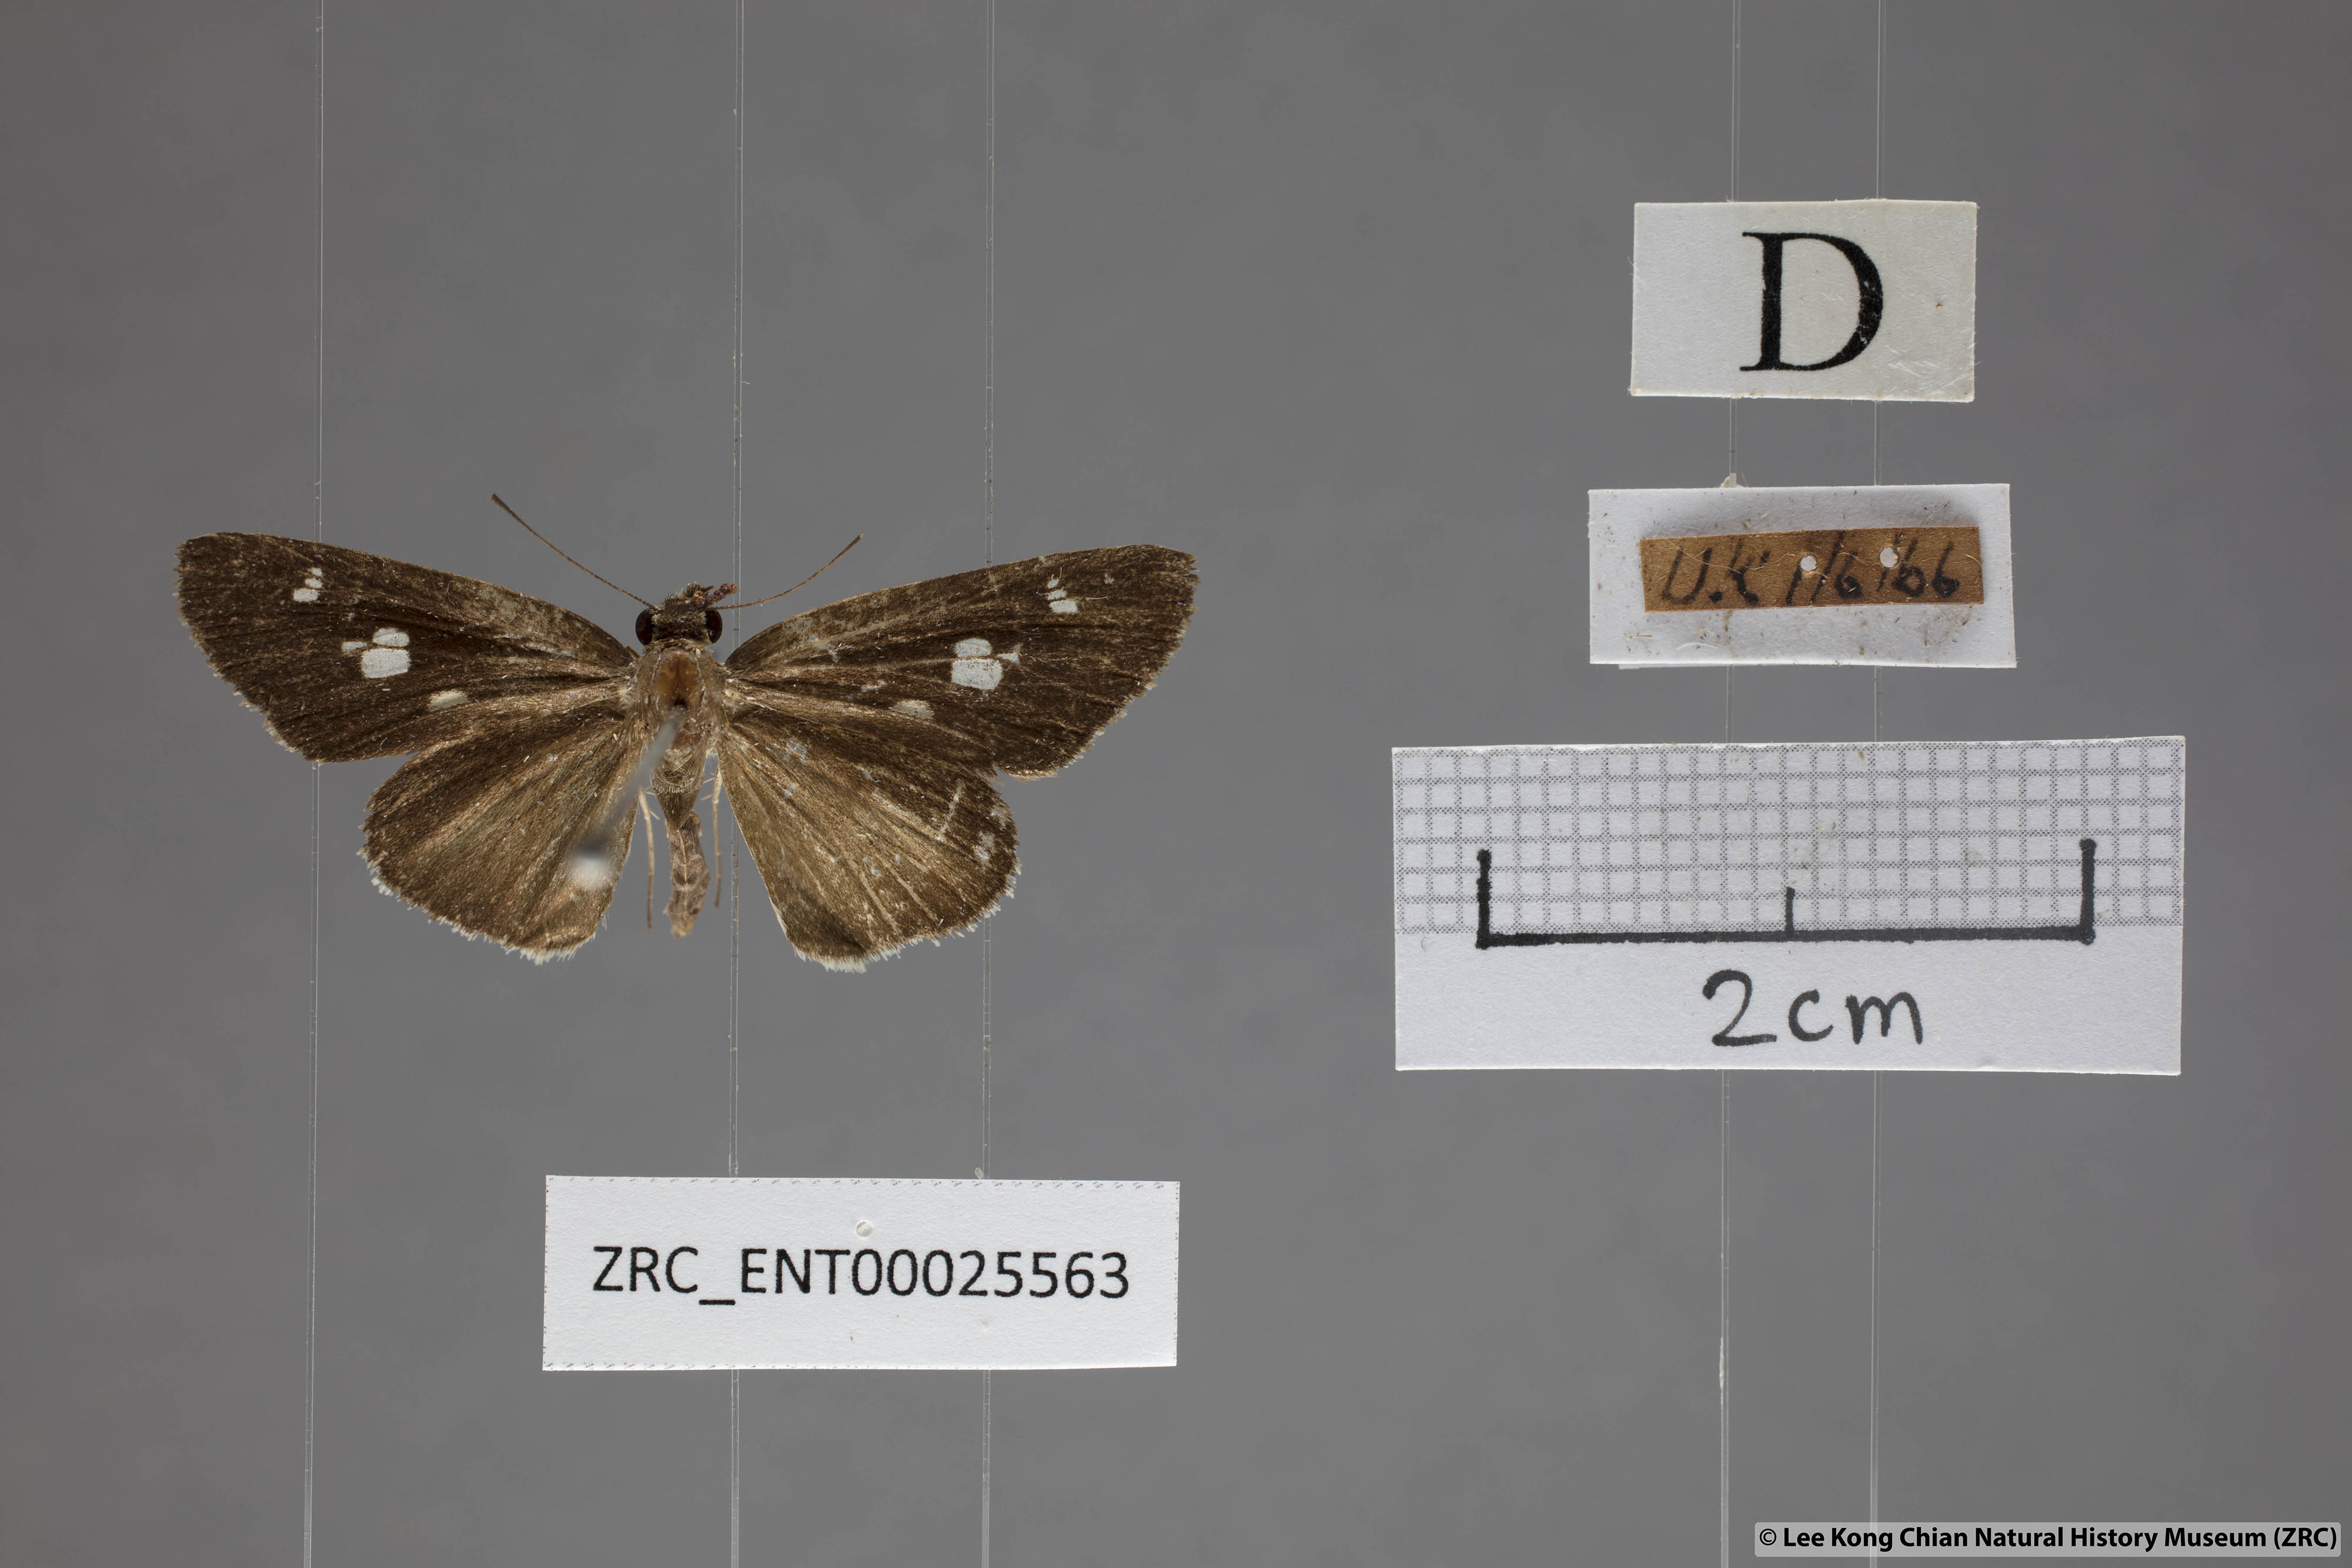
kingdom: Animalia
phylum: Arthropoda
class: Insecta
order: Lepidoptera
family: Hesperiidae
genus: Suada
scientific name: Suada swerga
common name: Grass bob
